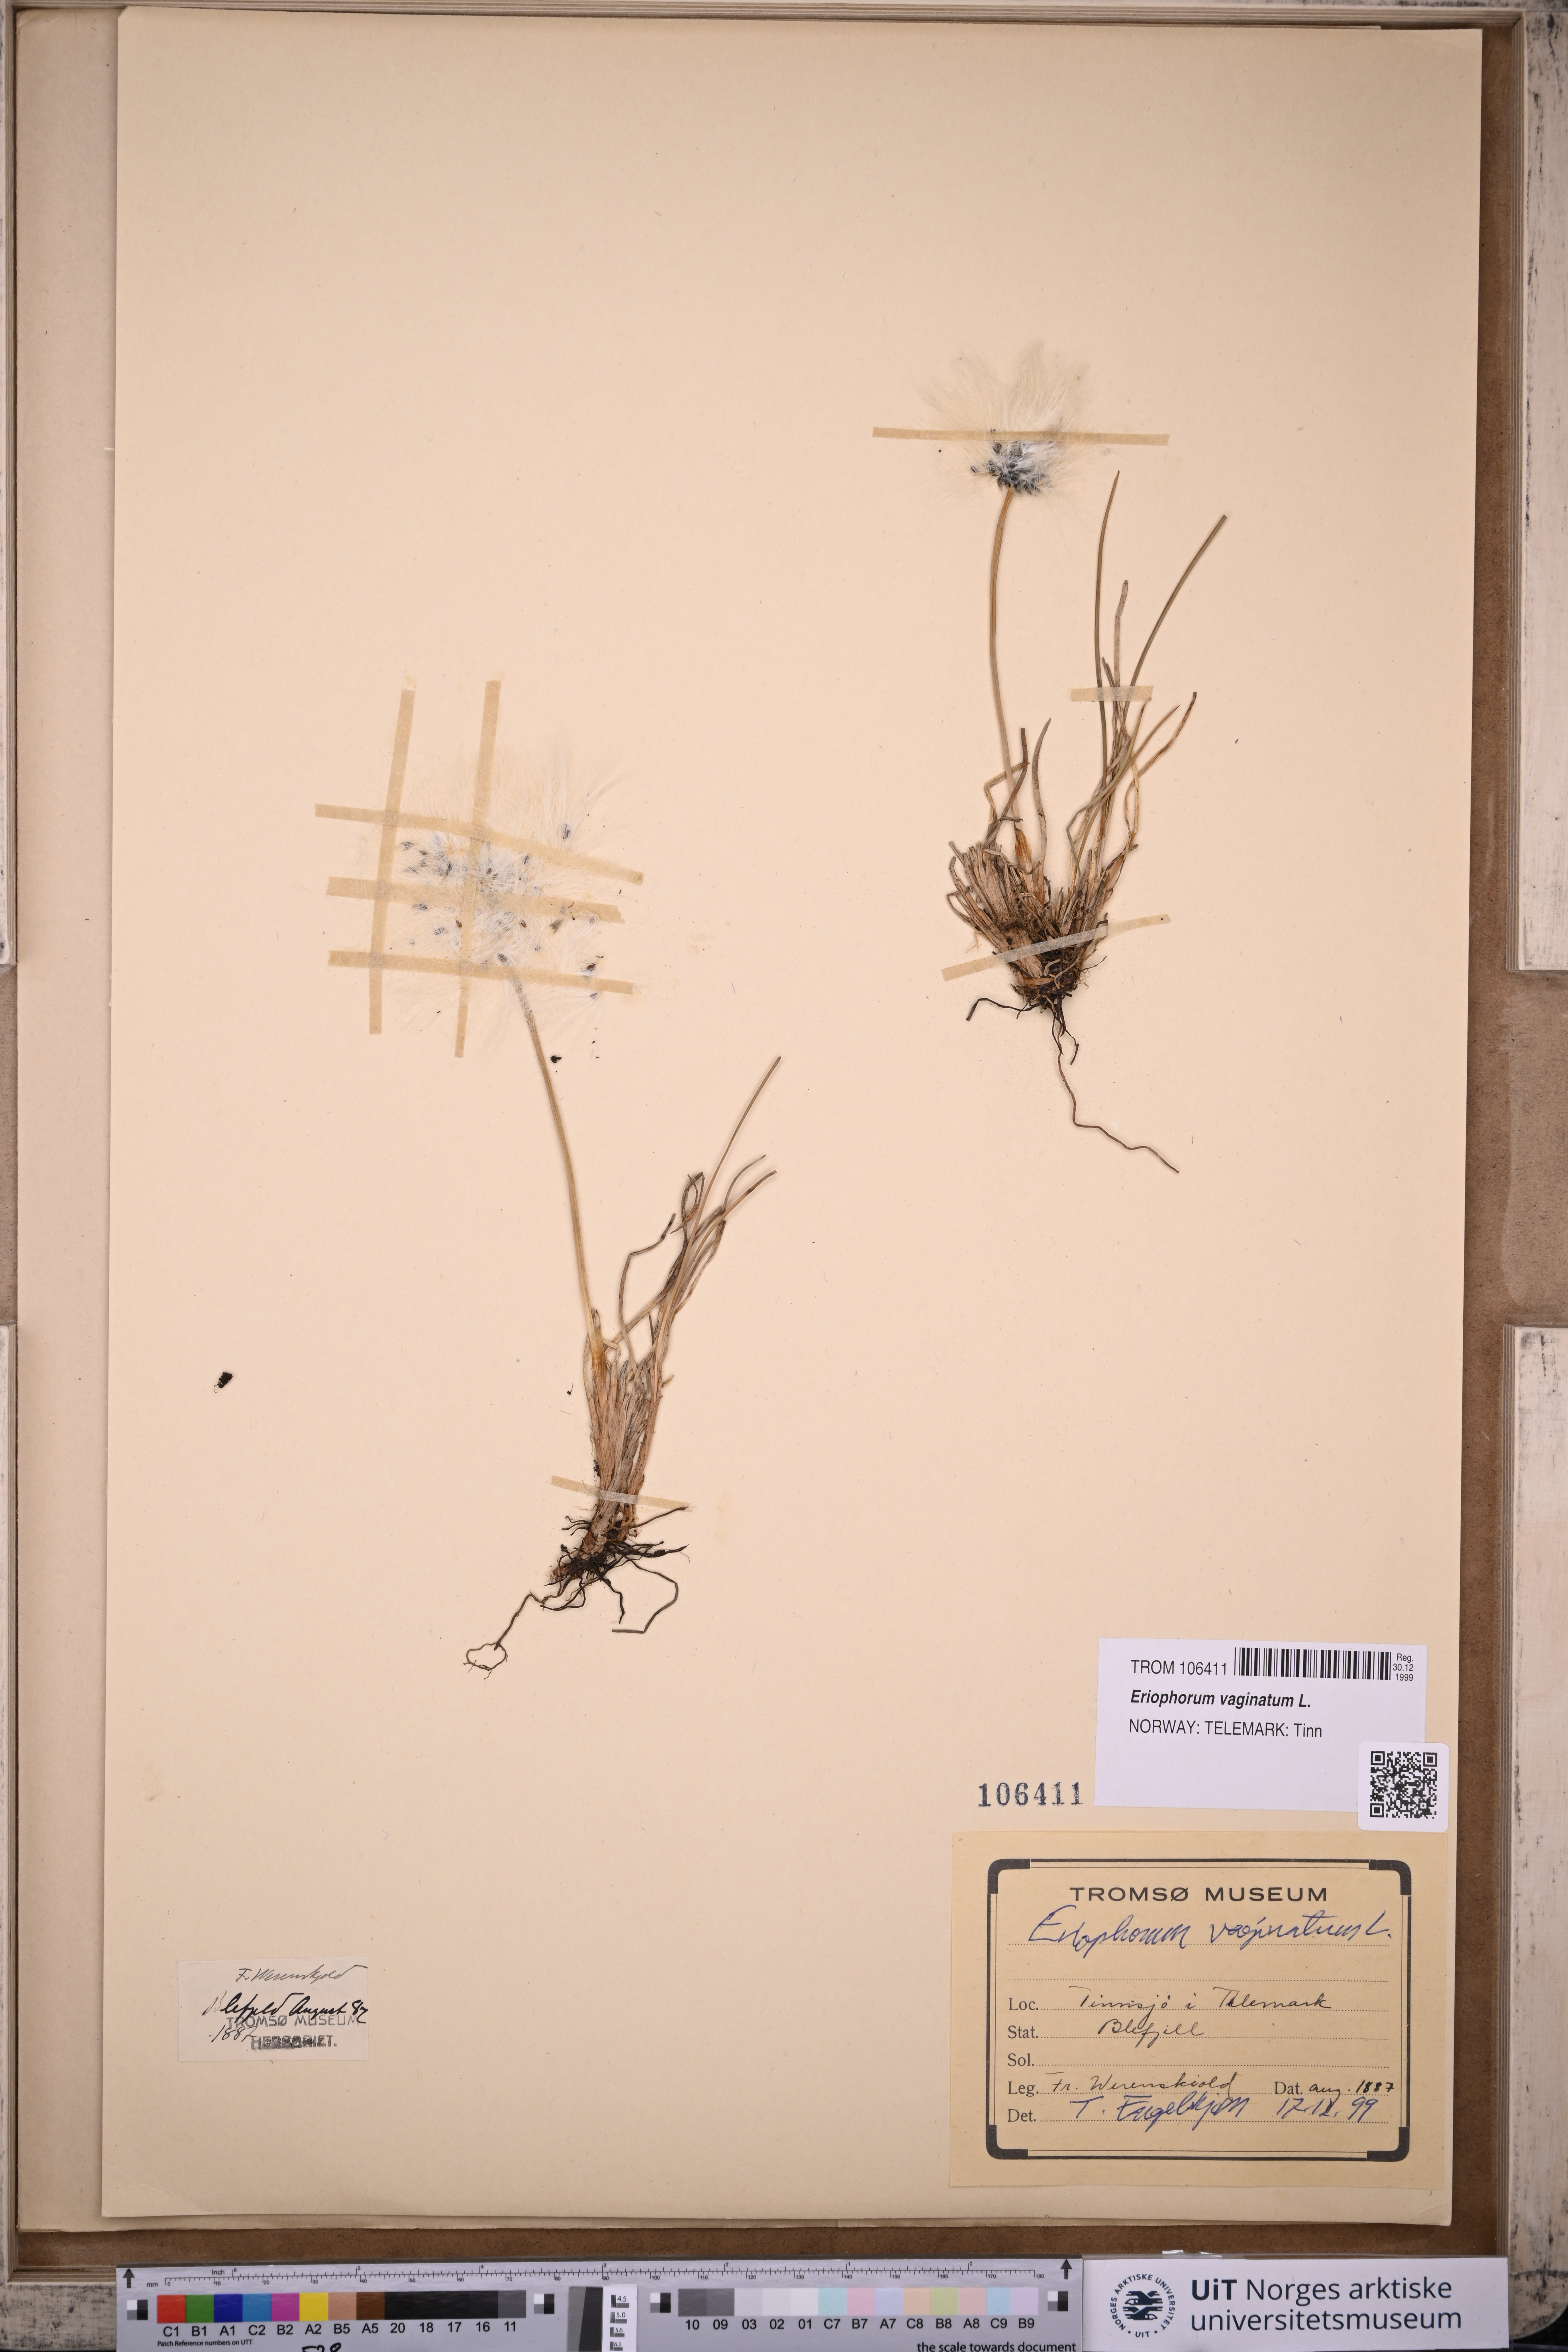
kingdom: Plantae
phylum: Tracheophyta
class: Liliopsida
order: Poales
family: Cyperaceae
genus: Eriophorum
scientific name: Eriophorum vaginatum
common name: Hare's-tail cottongrass
